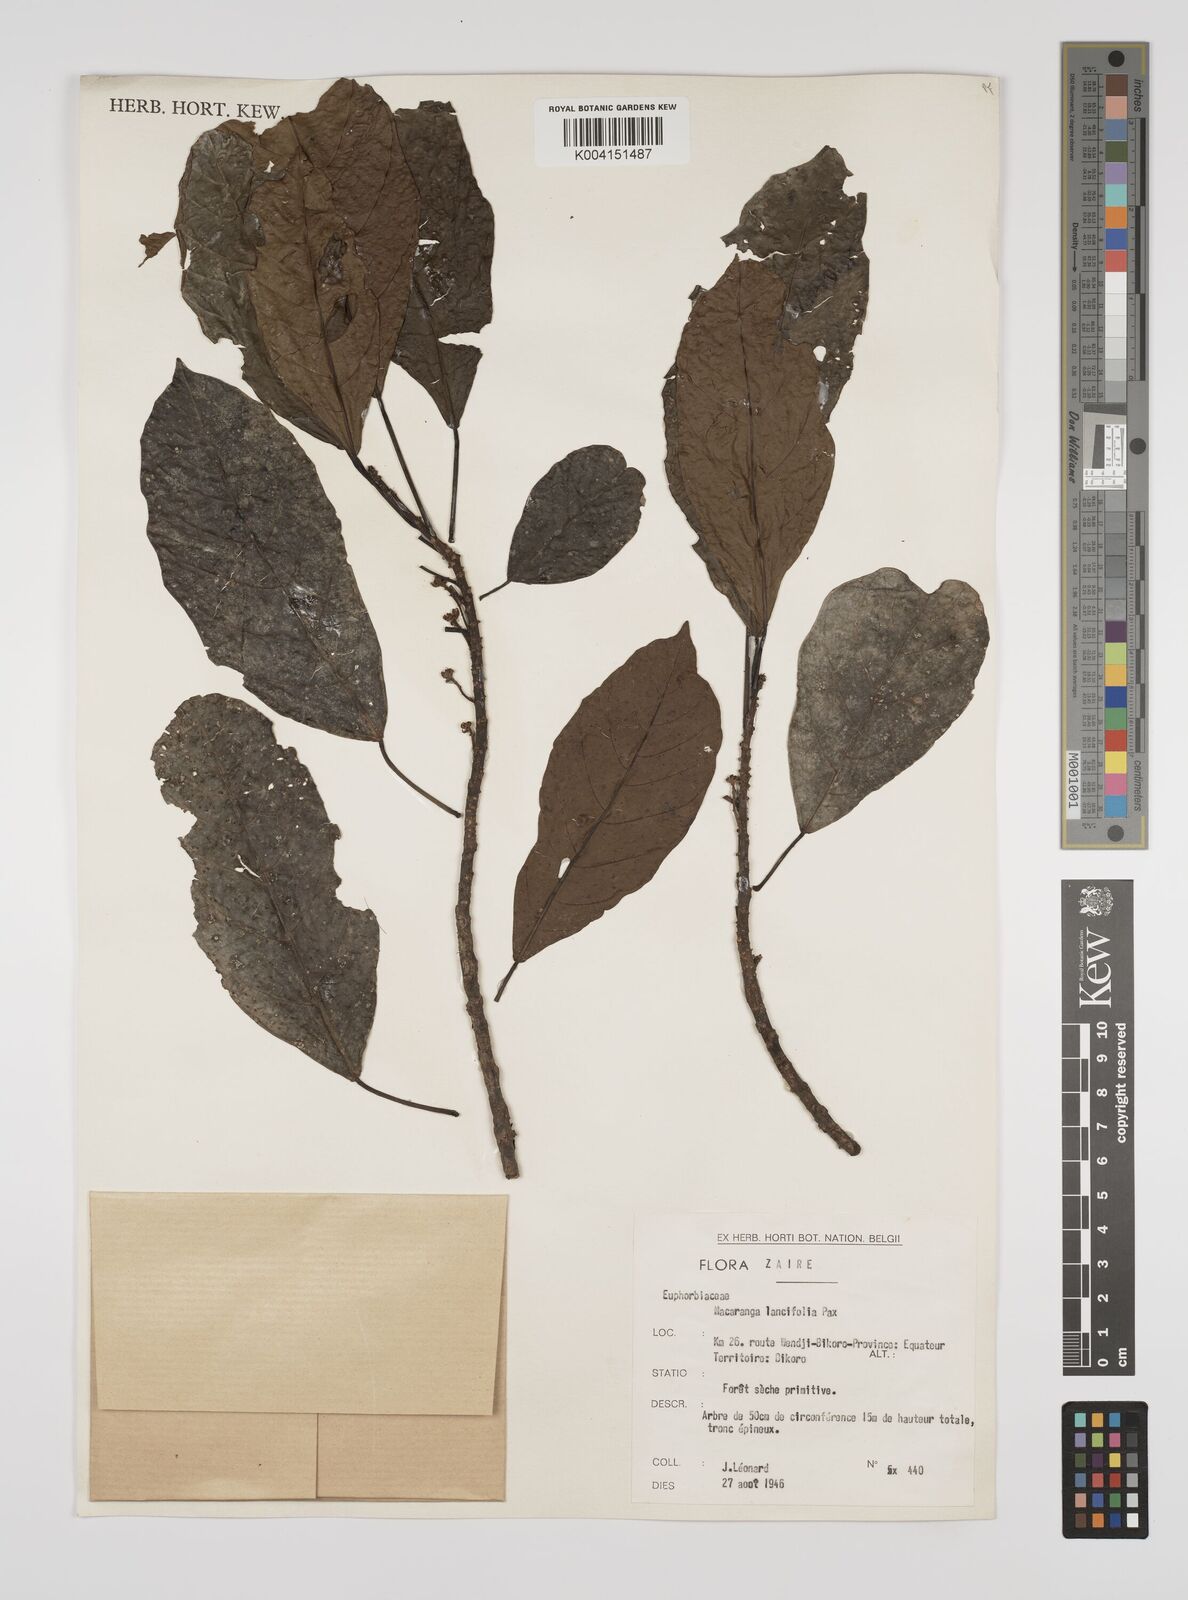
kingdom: Plantae
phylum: Tracheophyta
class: Magnoliopsida
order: Malpighiales
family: Euphorbiaceae
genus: Macaranga
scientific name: Macaranga barteri
